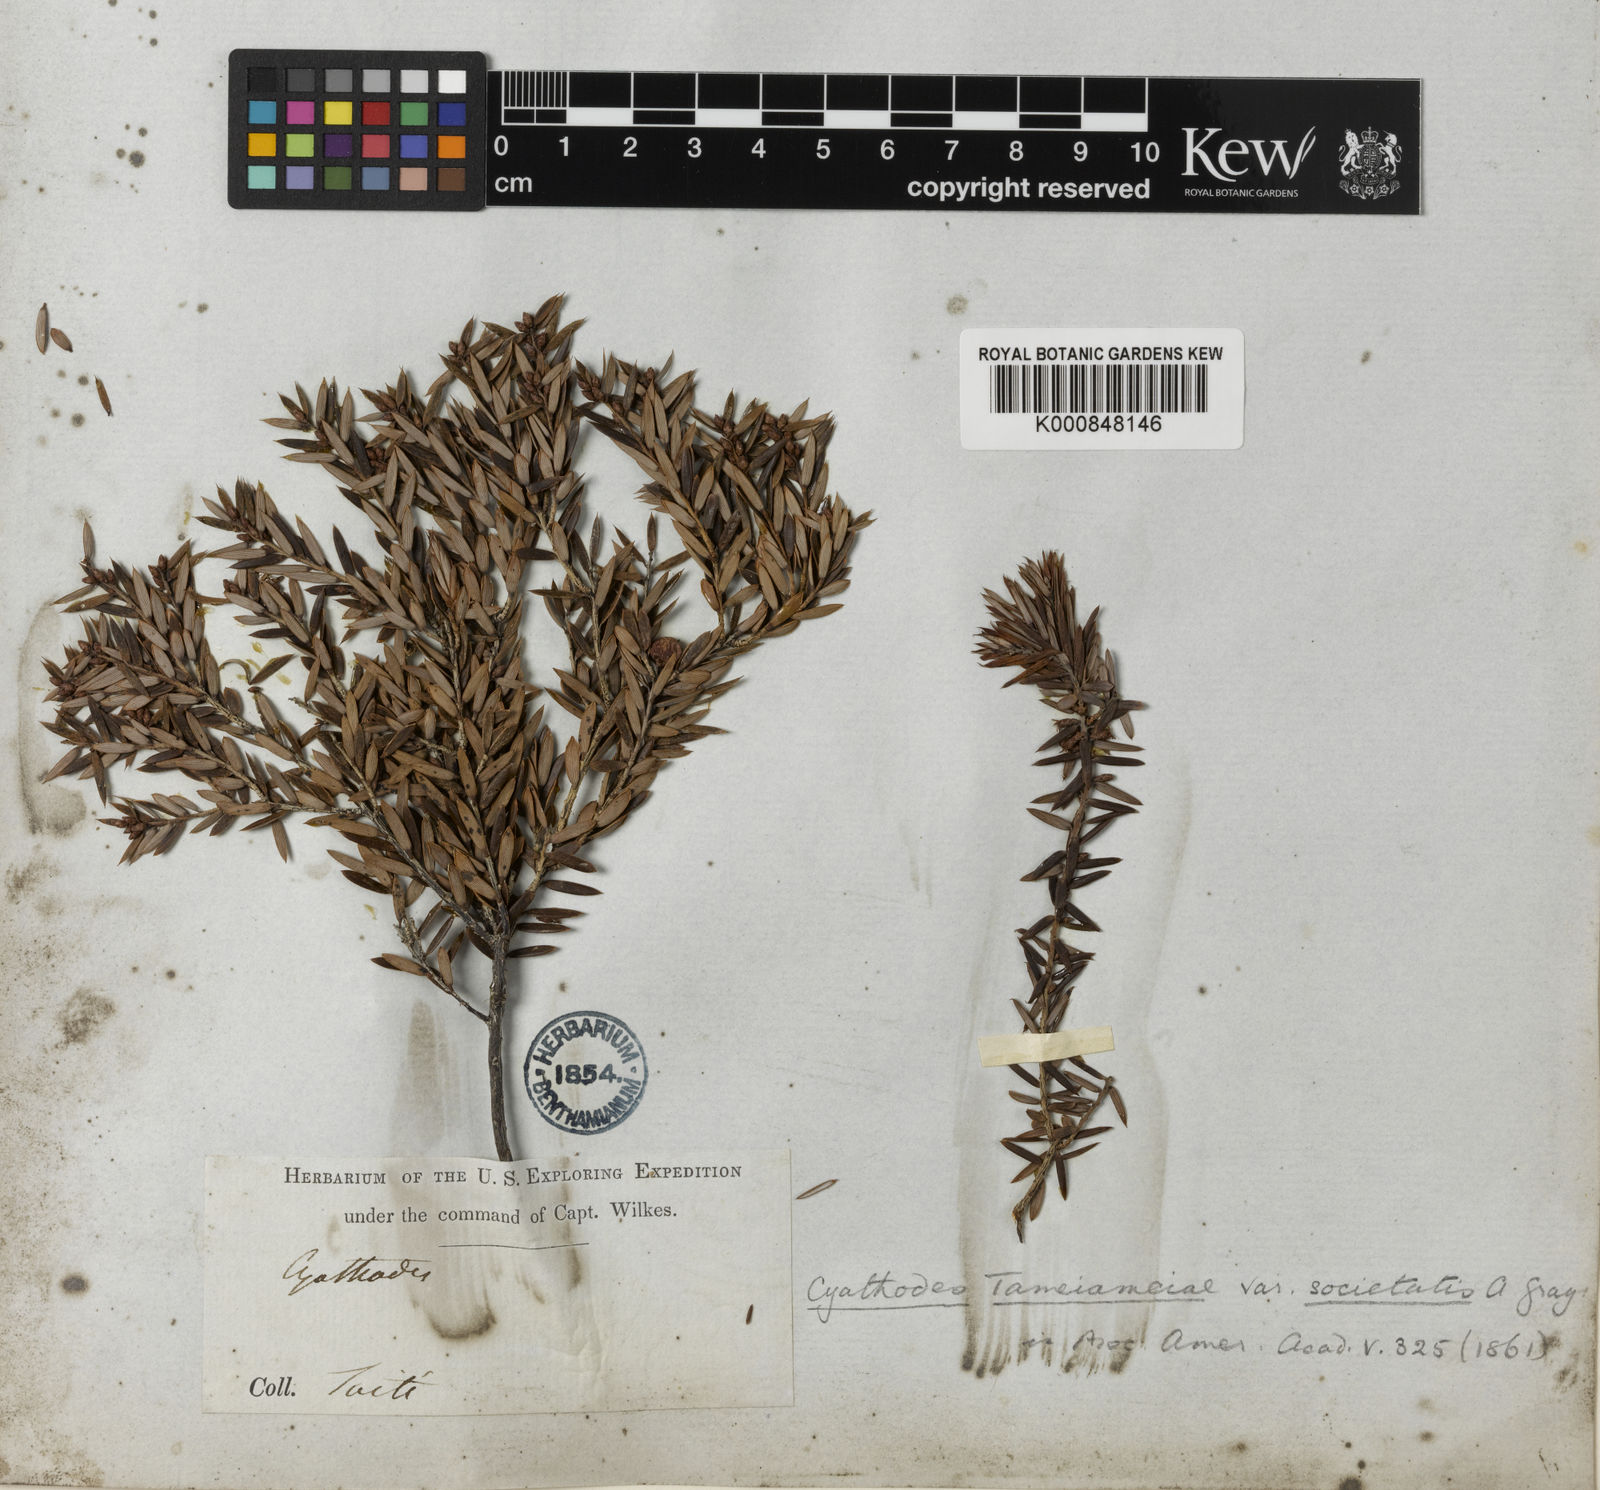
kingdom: Plantae
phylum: Tracheophyta
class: Magnoliopsida
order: Ericales
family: Ericaceae
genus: Leptecophylla
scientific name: Leptecophylla tameiameiae
